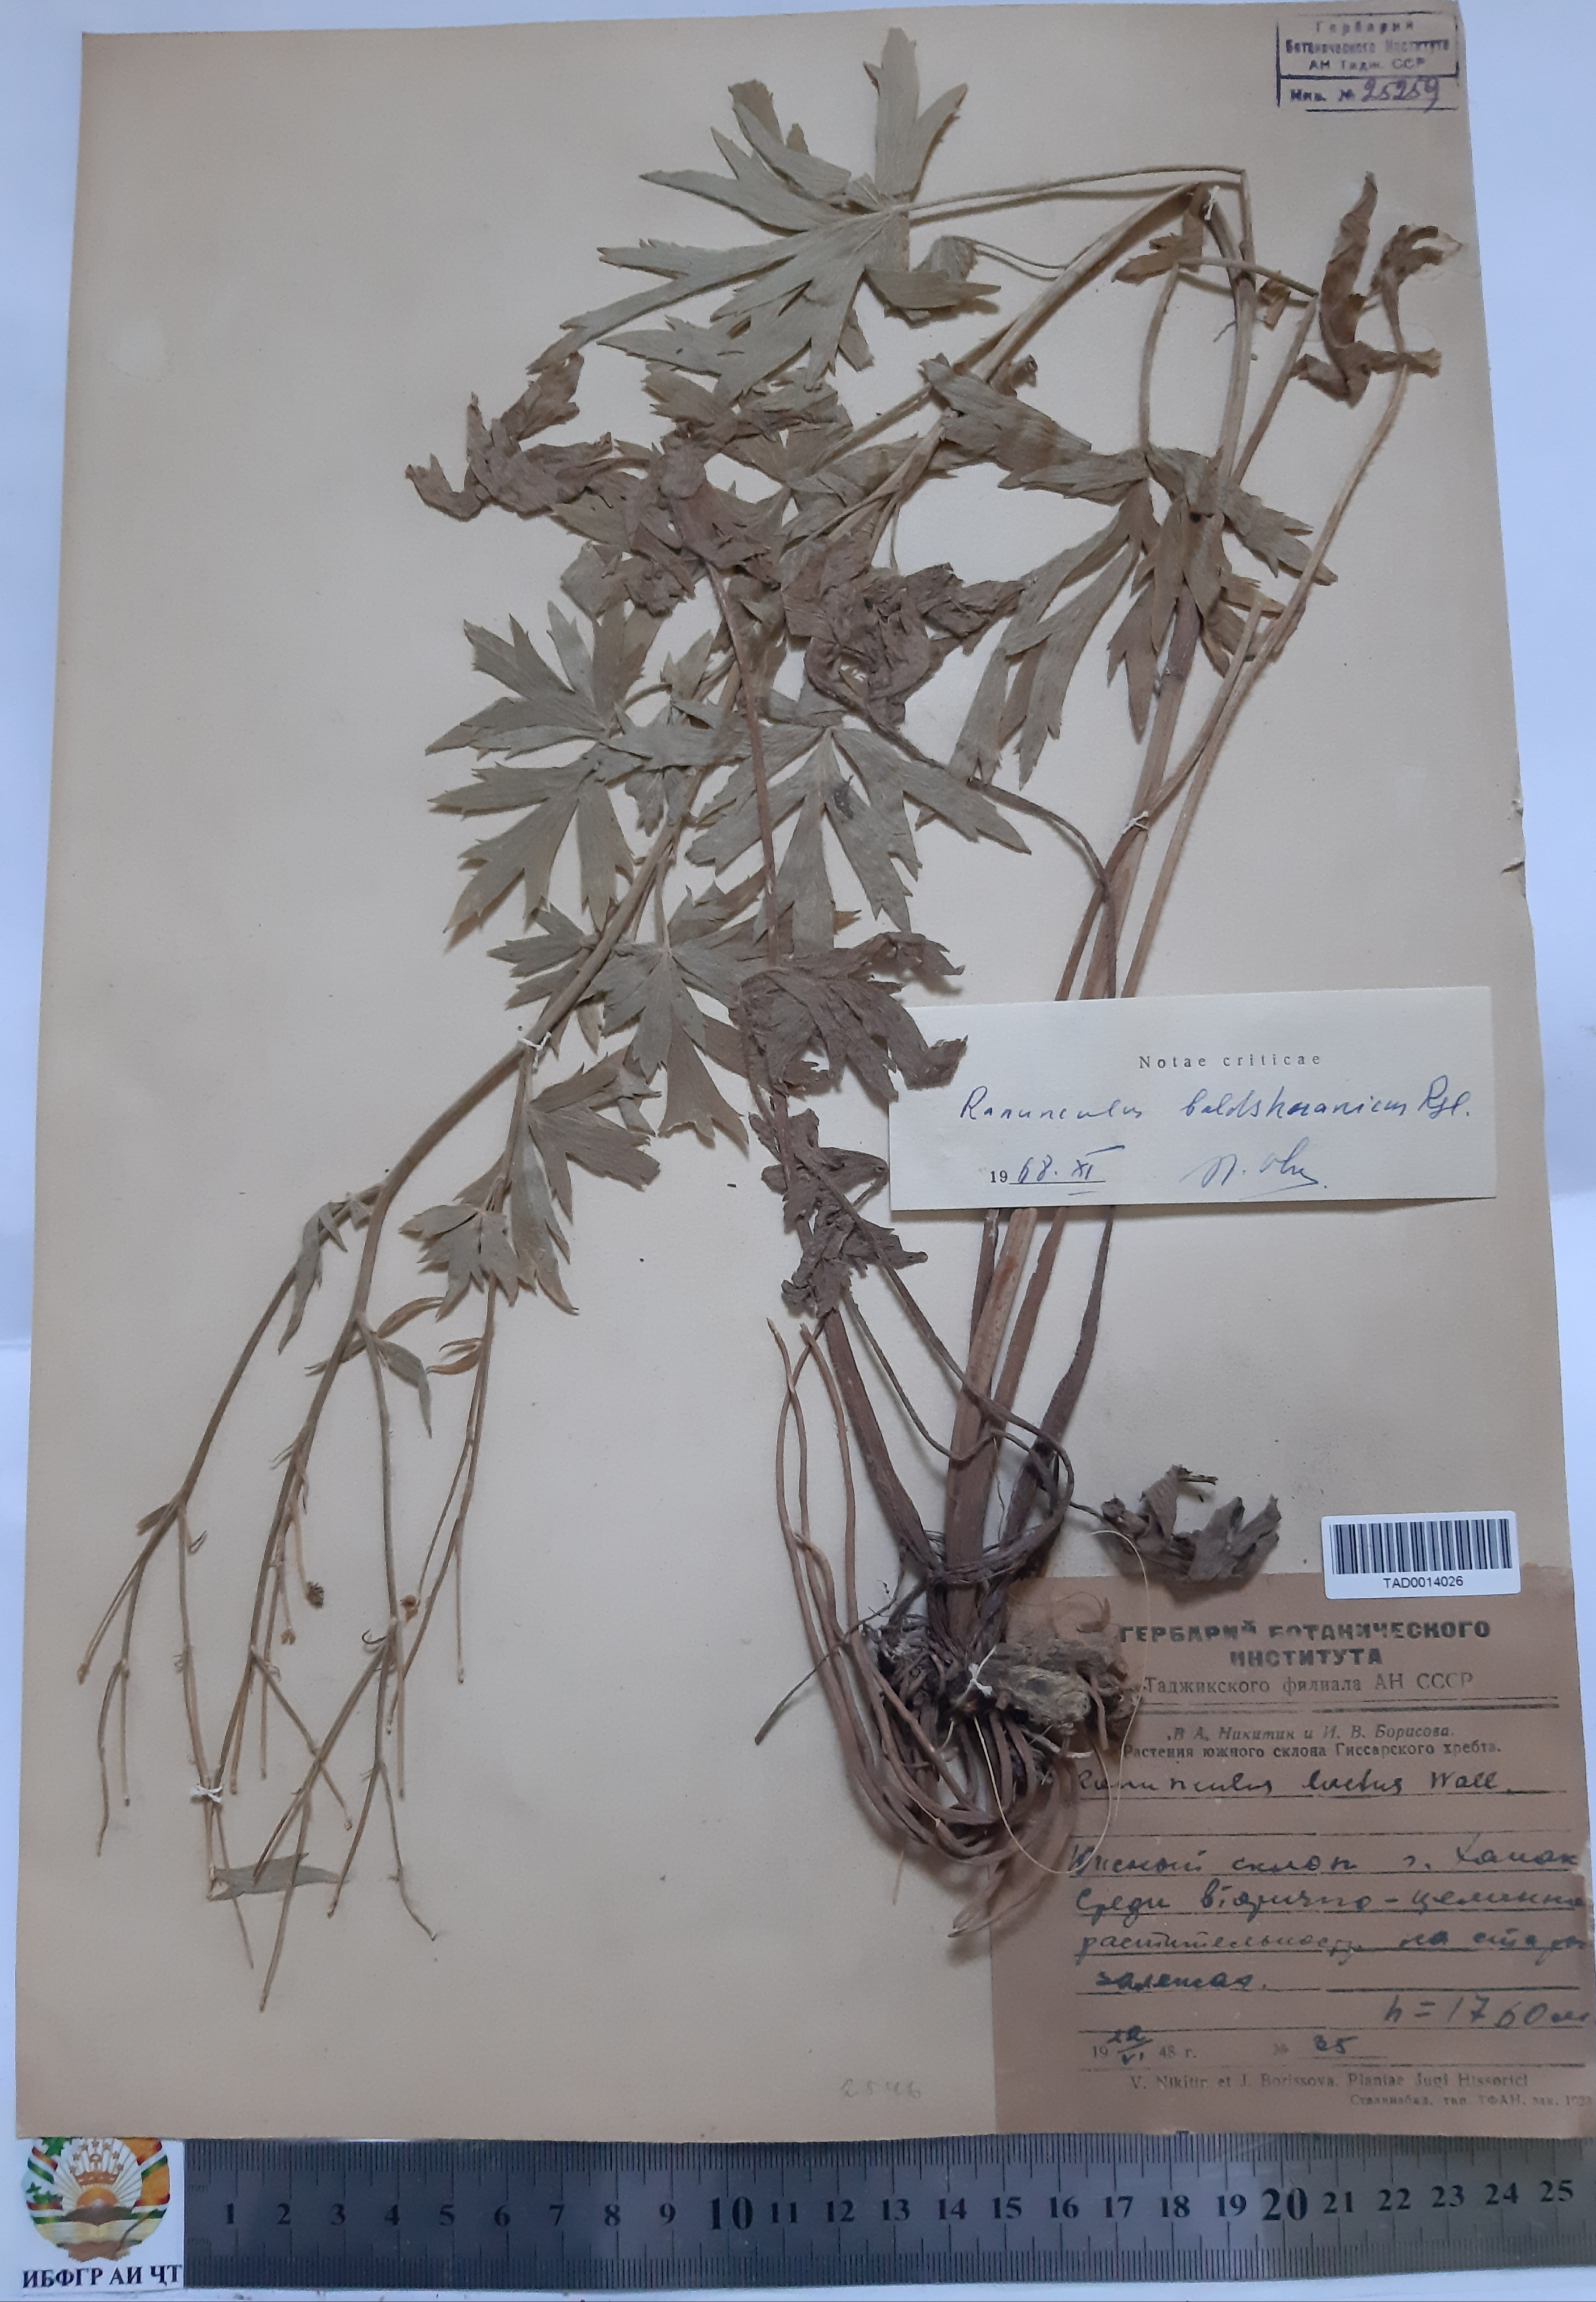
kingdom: Plantae
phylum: Tracheophyta
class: Magnoliopsida
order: Ranunculales
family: Ranunculaceae
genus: Ranunculus
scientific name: Ranunculus baldshuanicus
